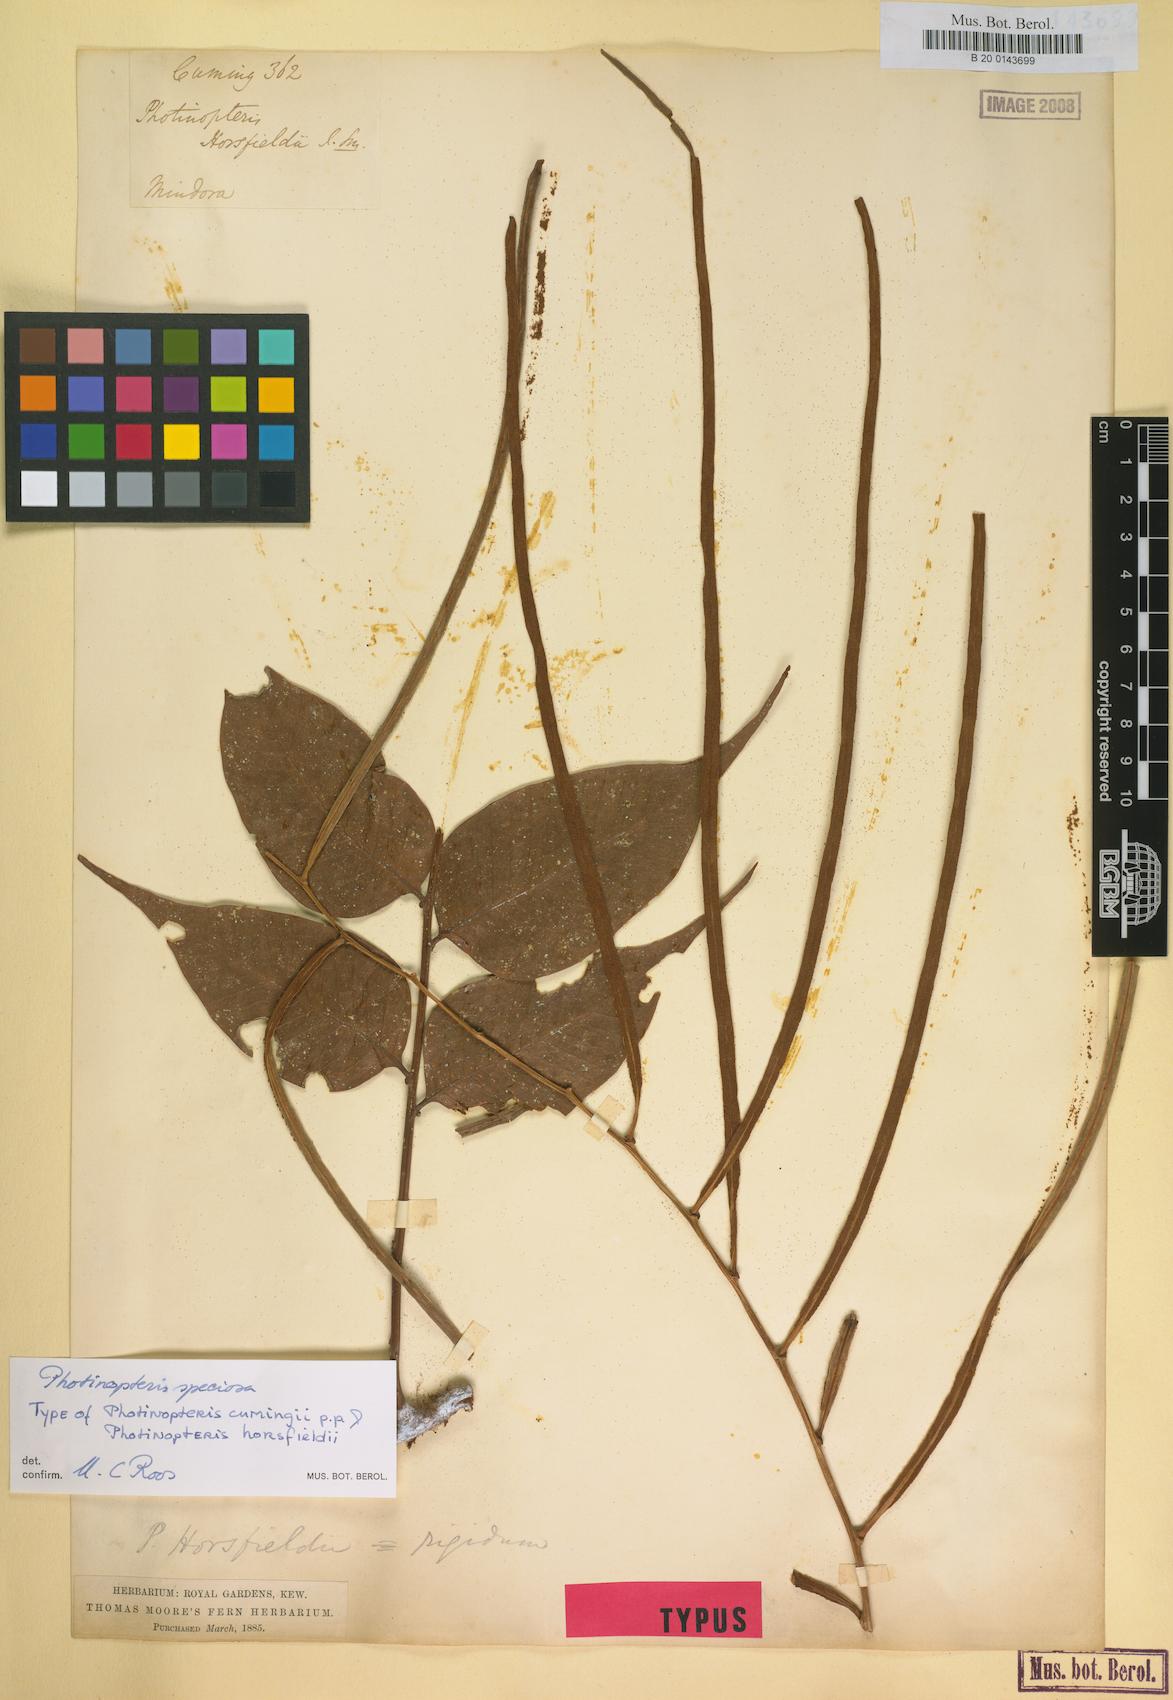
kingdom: Plantae
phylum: Tracheophyta
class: Polypodiopsida
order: Polypodiales
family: Polypodiaceae
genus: Drynaria
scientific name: Drynaria speciosa
